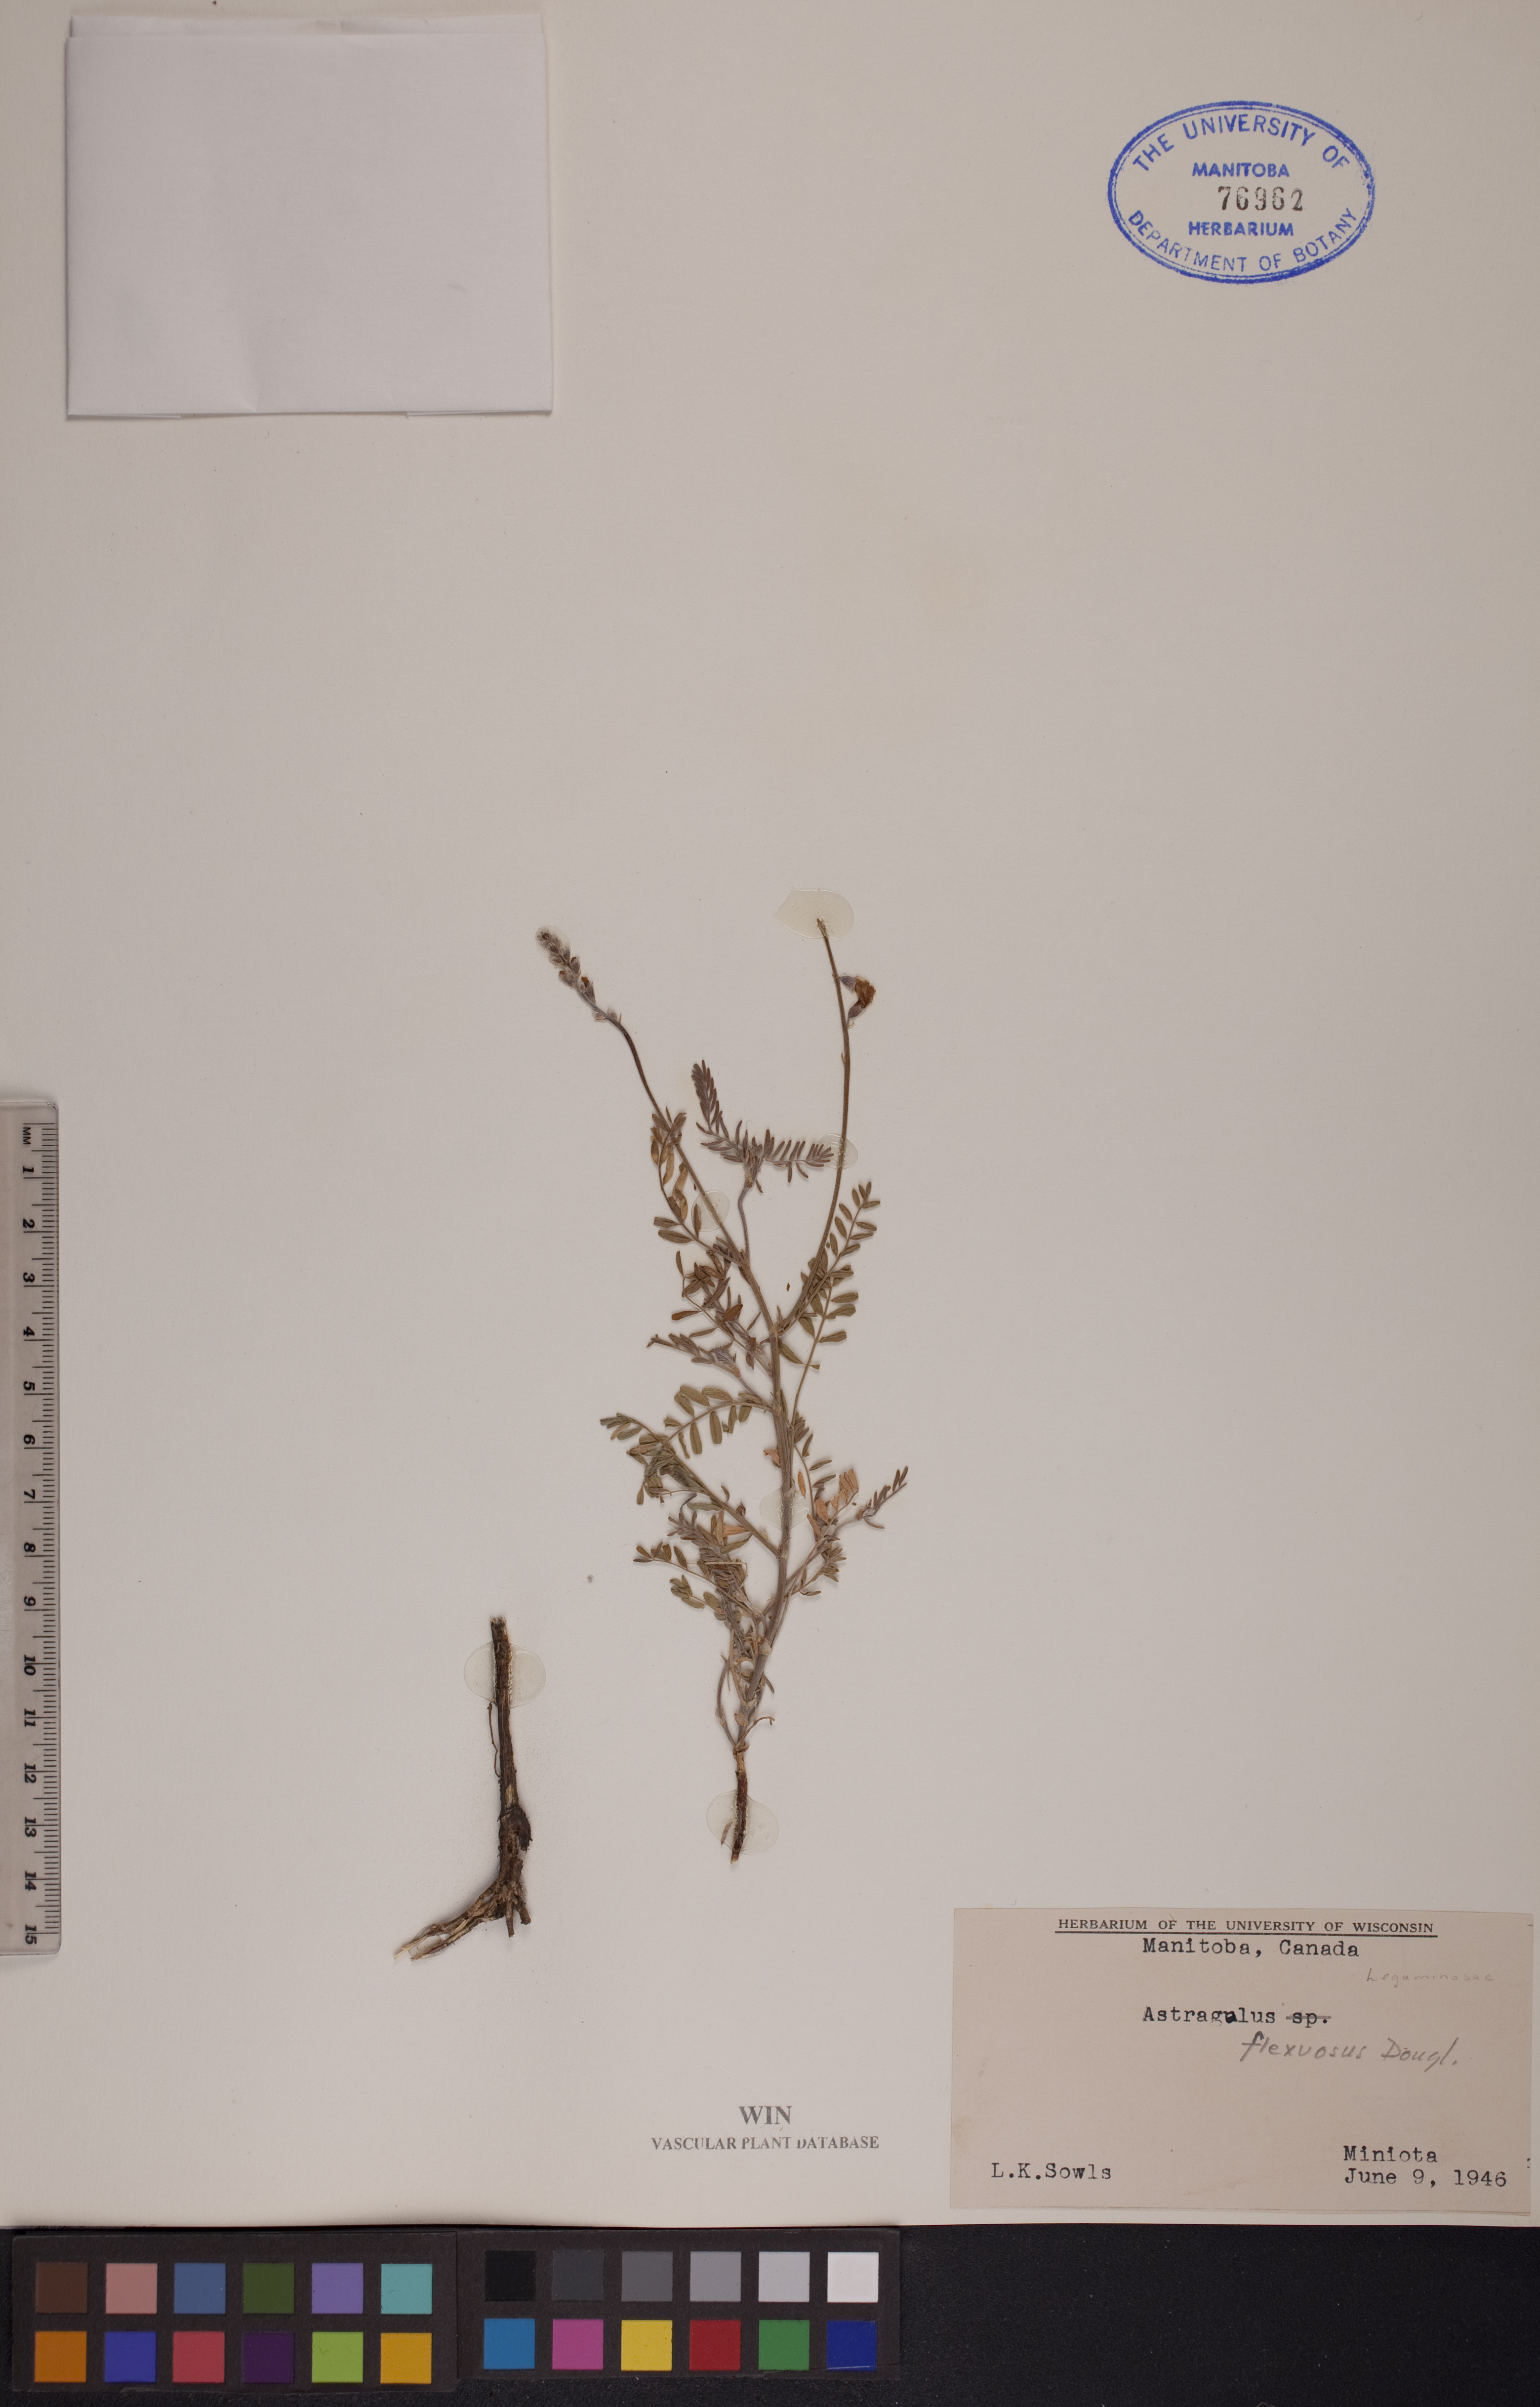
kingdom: Plantae
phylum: Tracheophyta
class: Magnoliopsida
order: Fabales
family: Fabaceae
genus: Astragalus
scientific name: Astragalus flexuosus
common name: Pliant milk-vetch
